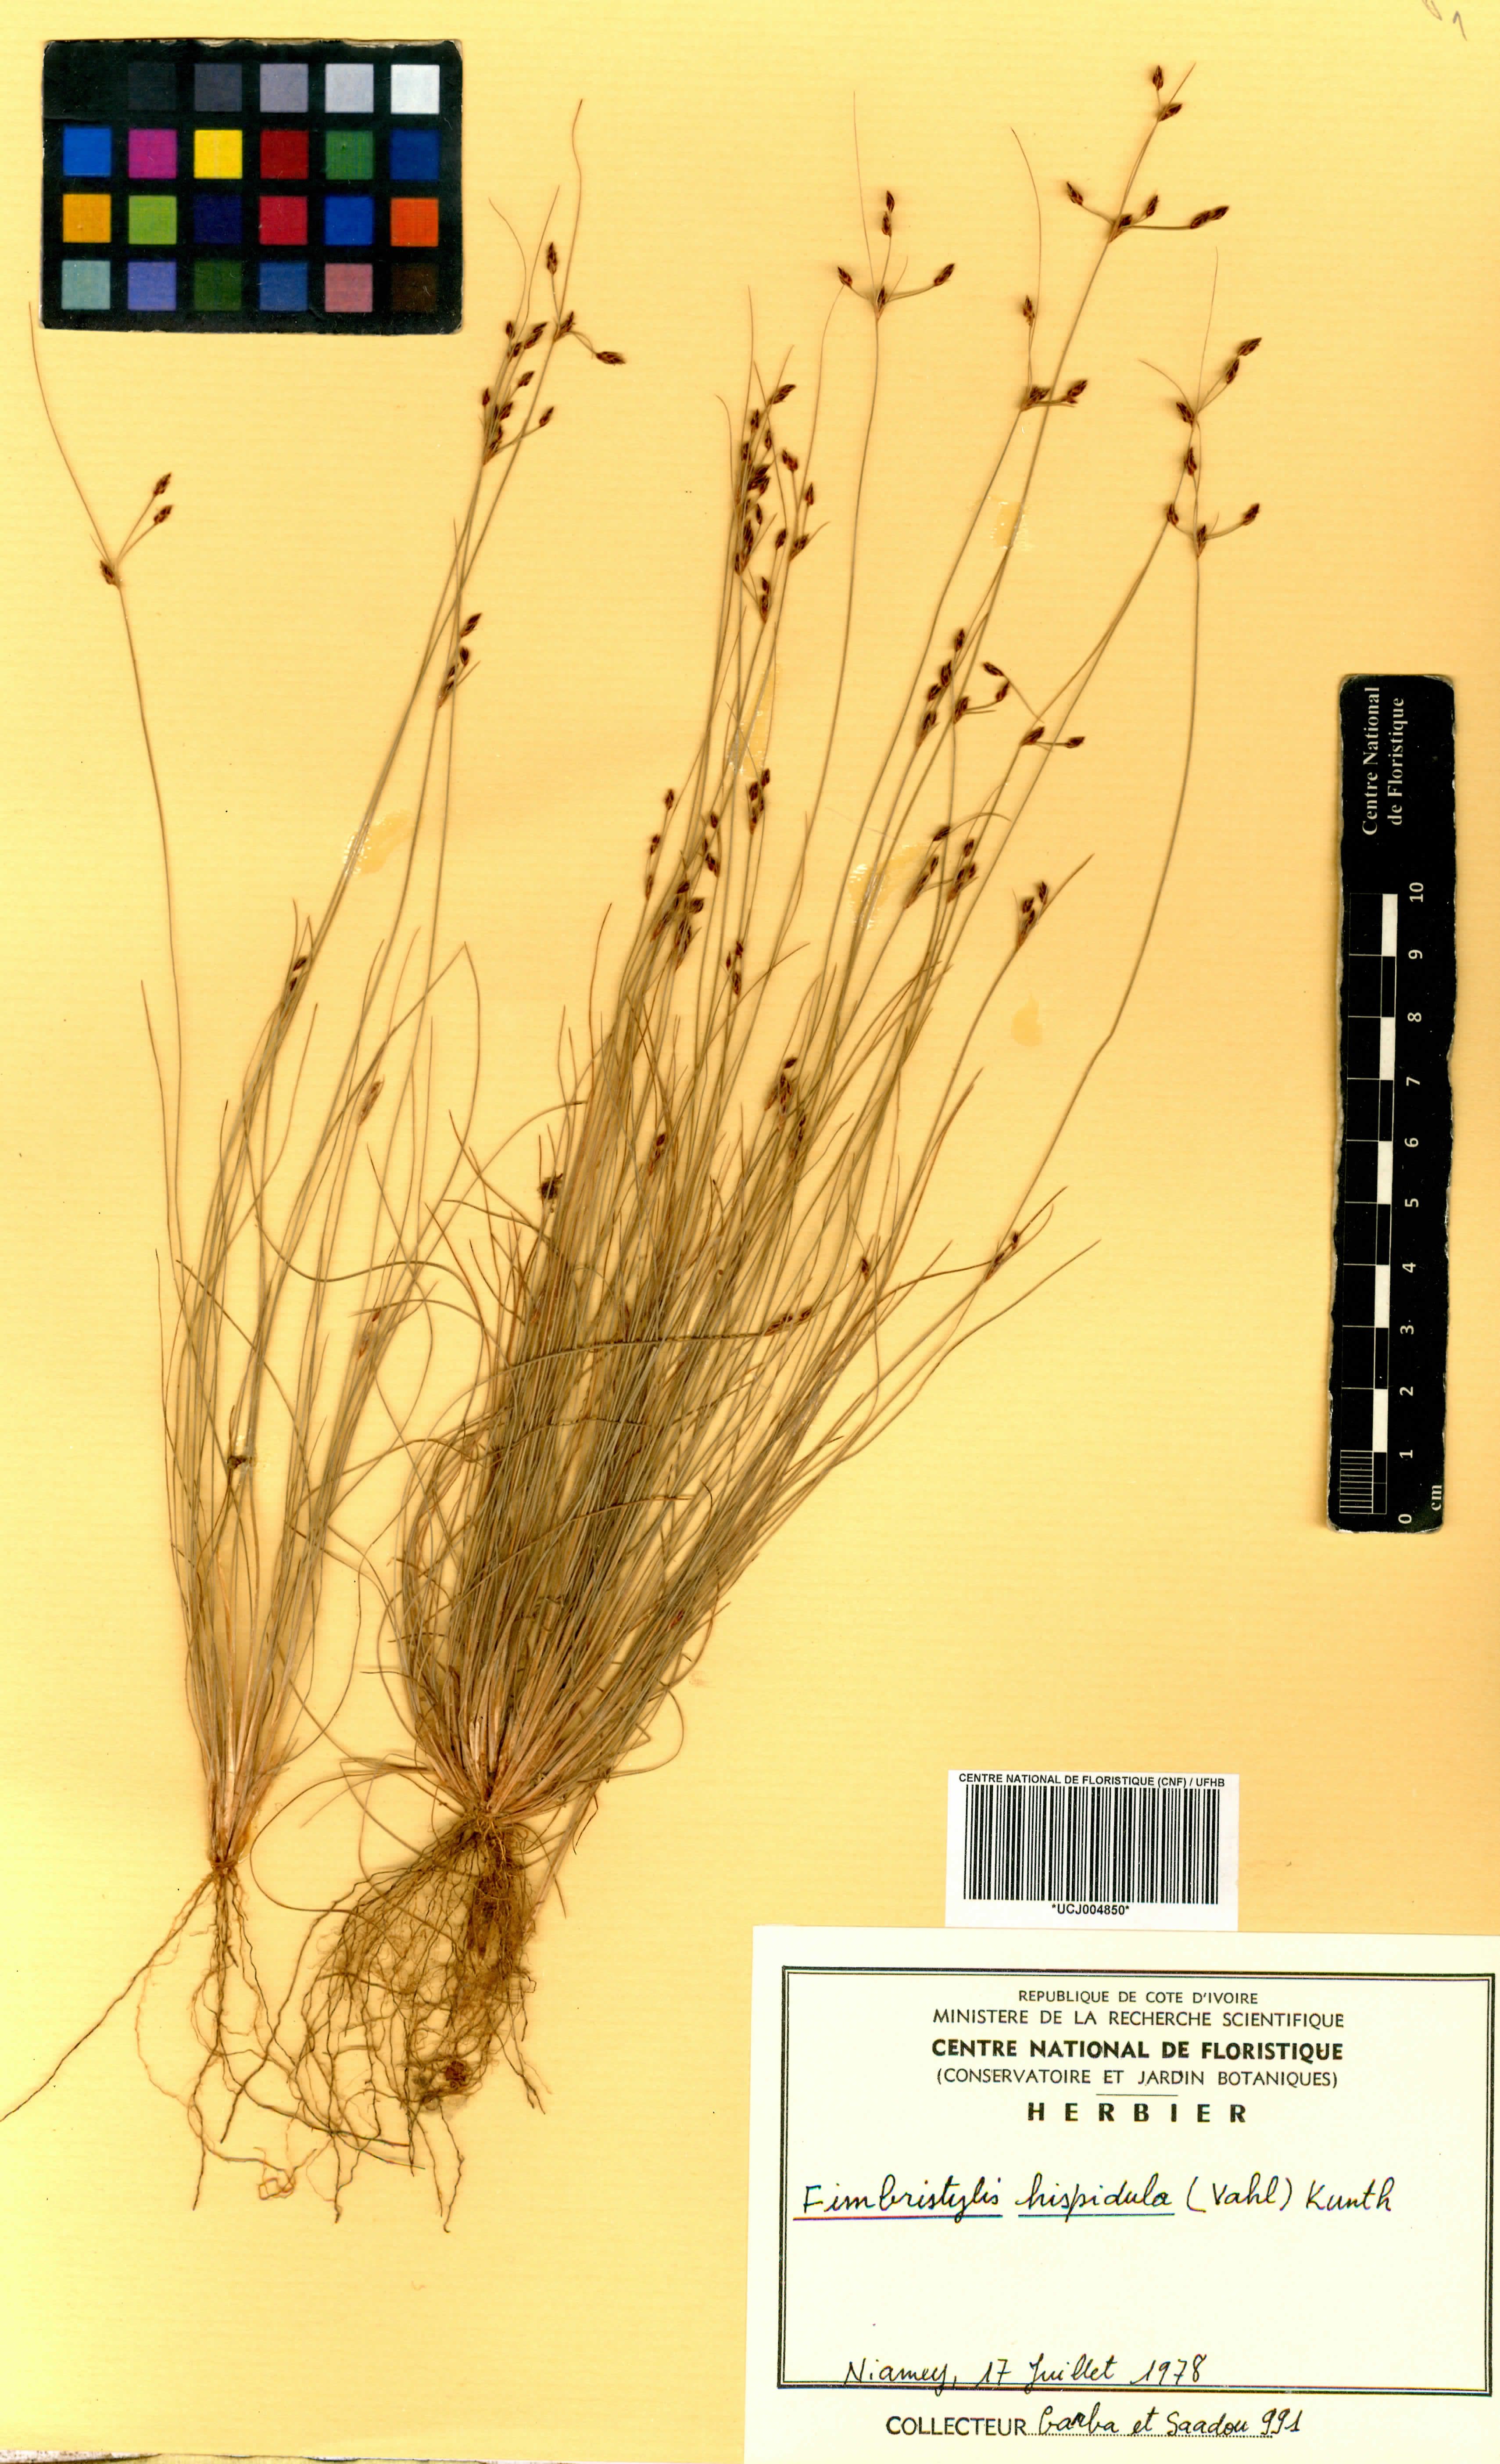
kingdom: Plantae
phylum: Tracheophyta
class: Liliopsida
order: Poales
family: Cyperaceae
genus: Bulbostylis
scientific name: Bulbostylis hispidula
